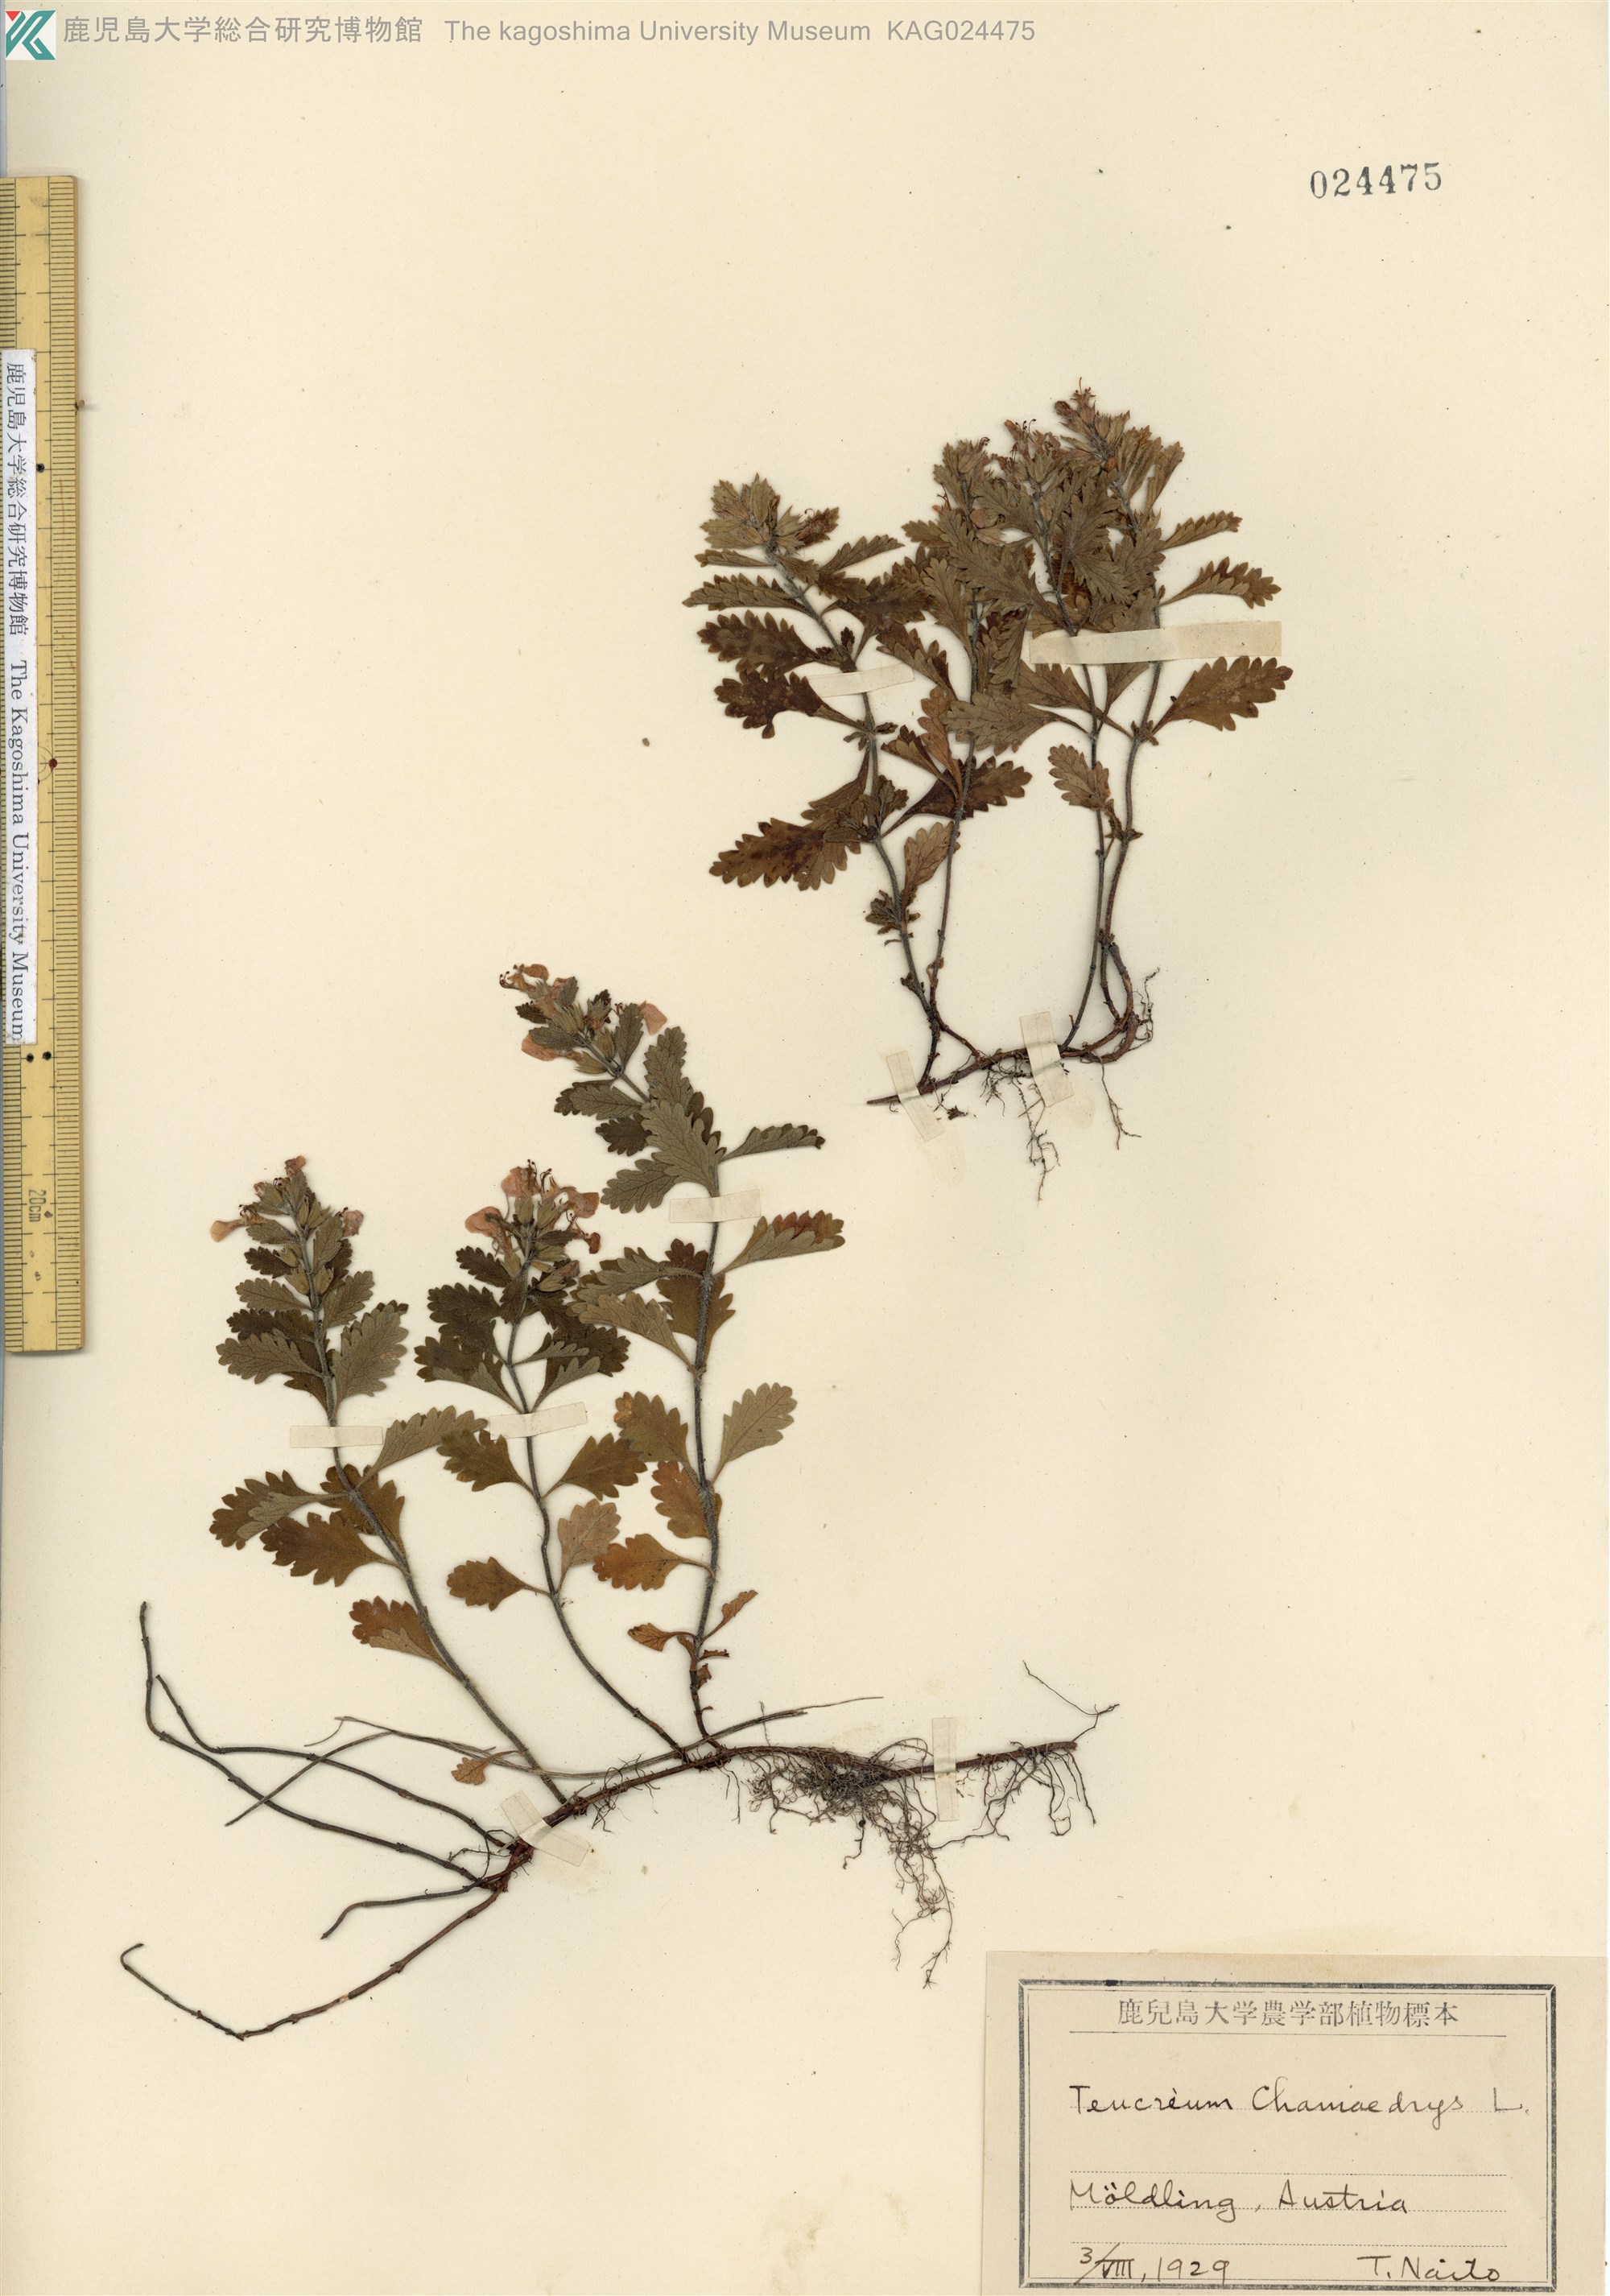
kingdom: Plantae
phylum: Tracheophyta
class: Magnoliopsida
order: Lamiales
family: Lamiaceae
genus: Teucrium
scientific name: Teucrium chamaedrys
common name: Wall germander
